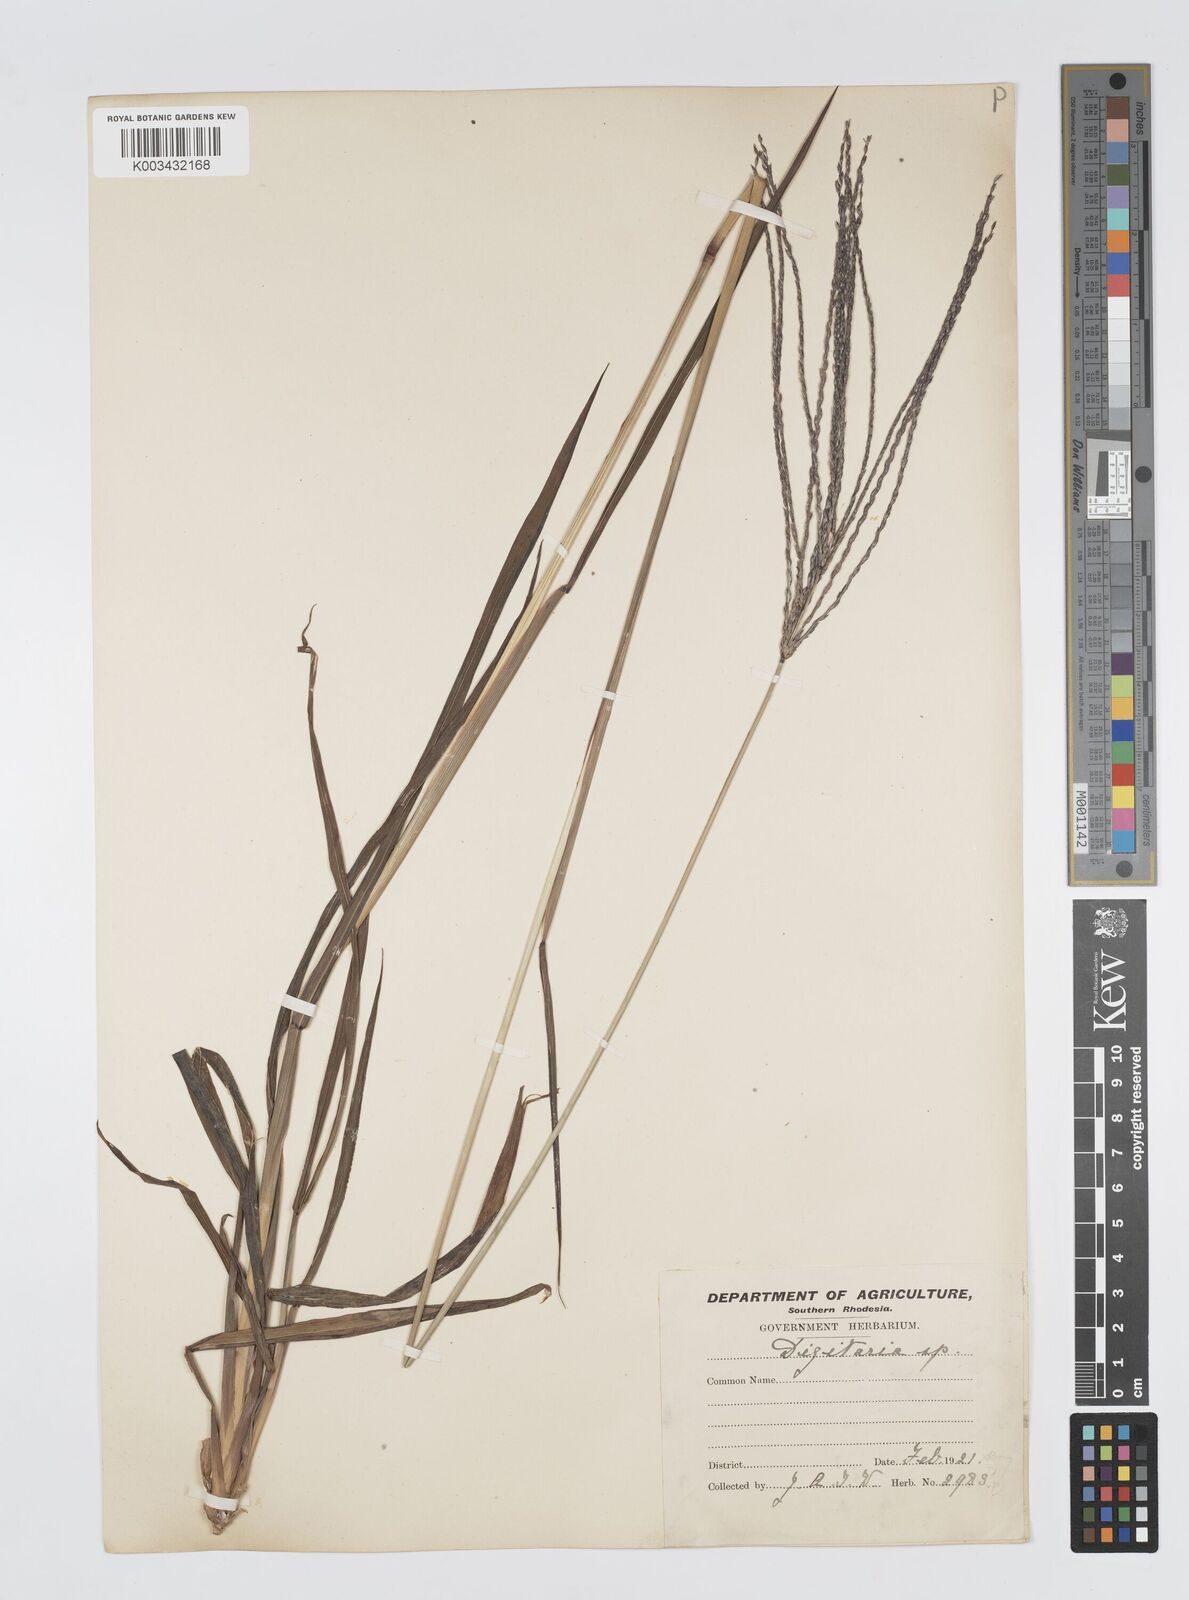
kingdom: Plantae
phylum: Tracheophyta
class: Liliopsida
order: Poales
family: Poaceae
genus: Digitaria
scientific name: Digitaria milanjiana
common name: Madagascar crabgrass
